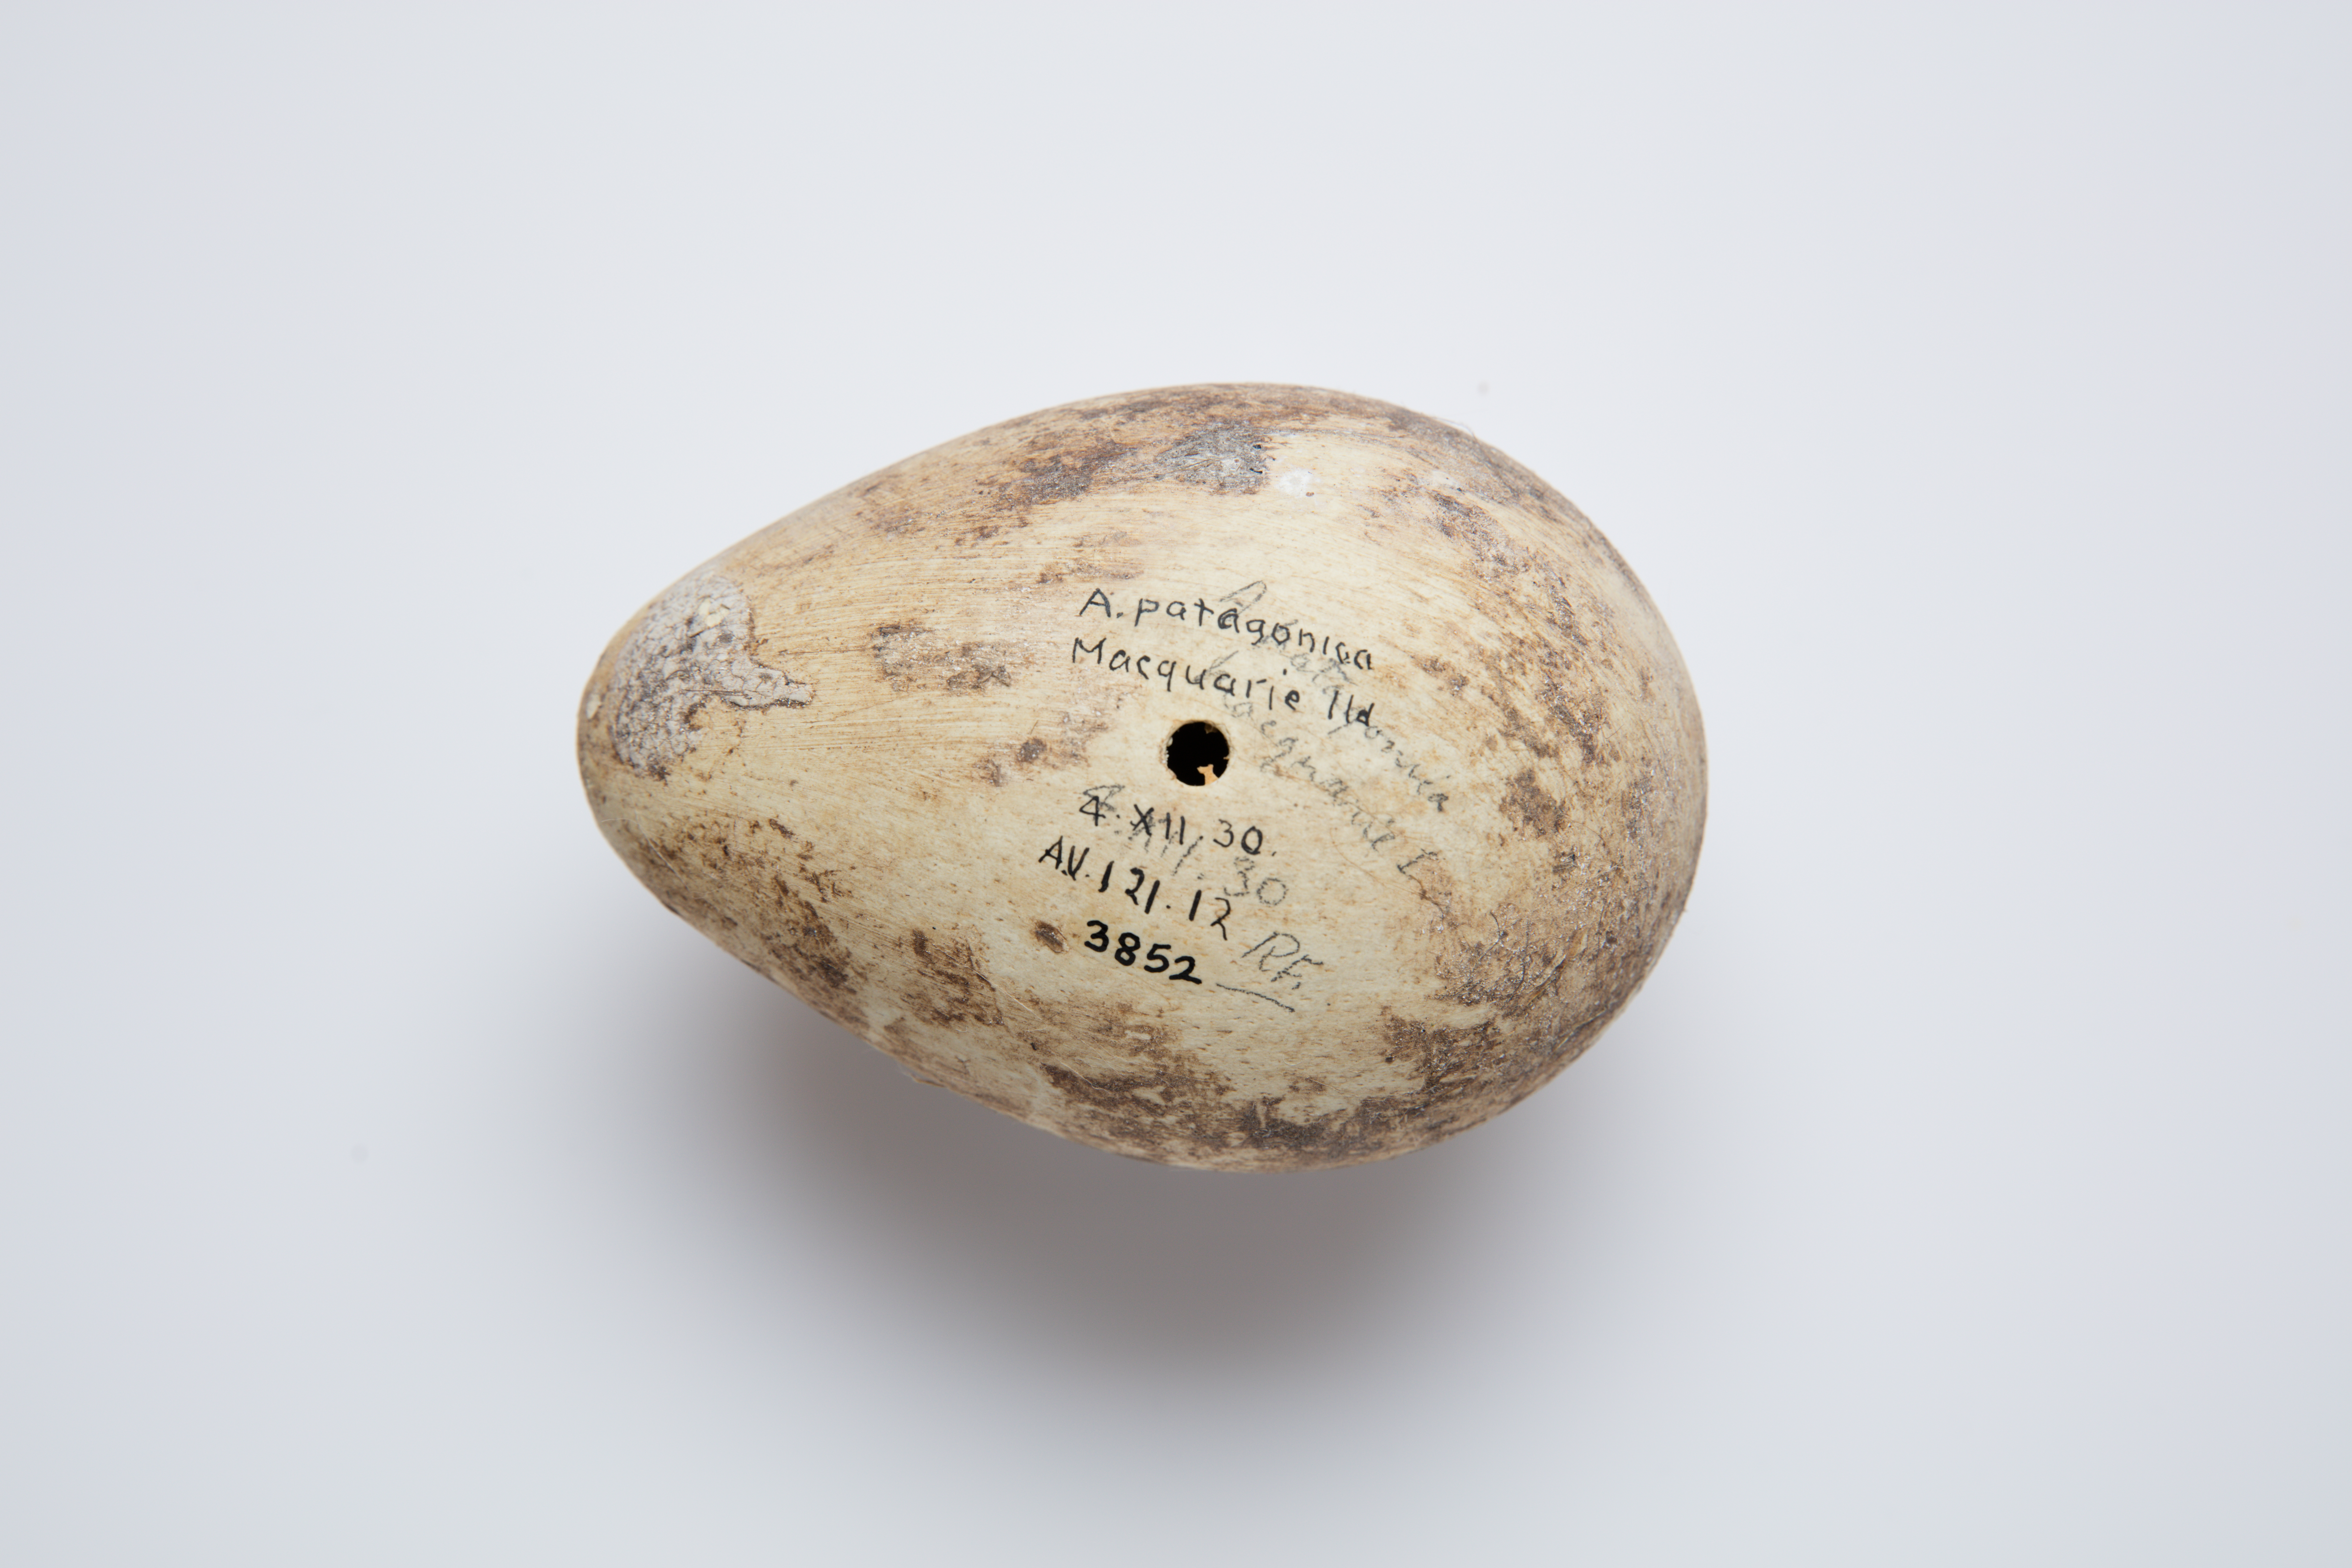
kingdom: Animalia
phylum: Chordata
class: Aves
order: Sphenisciformes
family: Spheniscidae
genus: Aptenodytes
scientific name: Aptenodytes patagonicus
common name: King penguin
